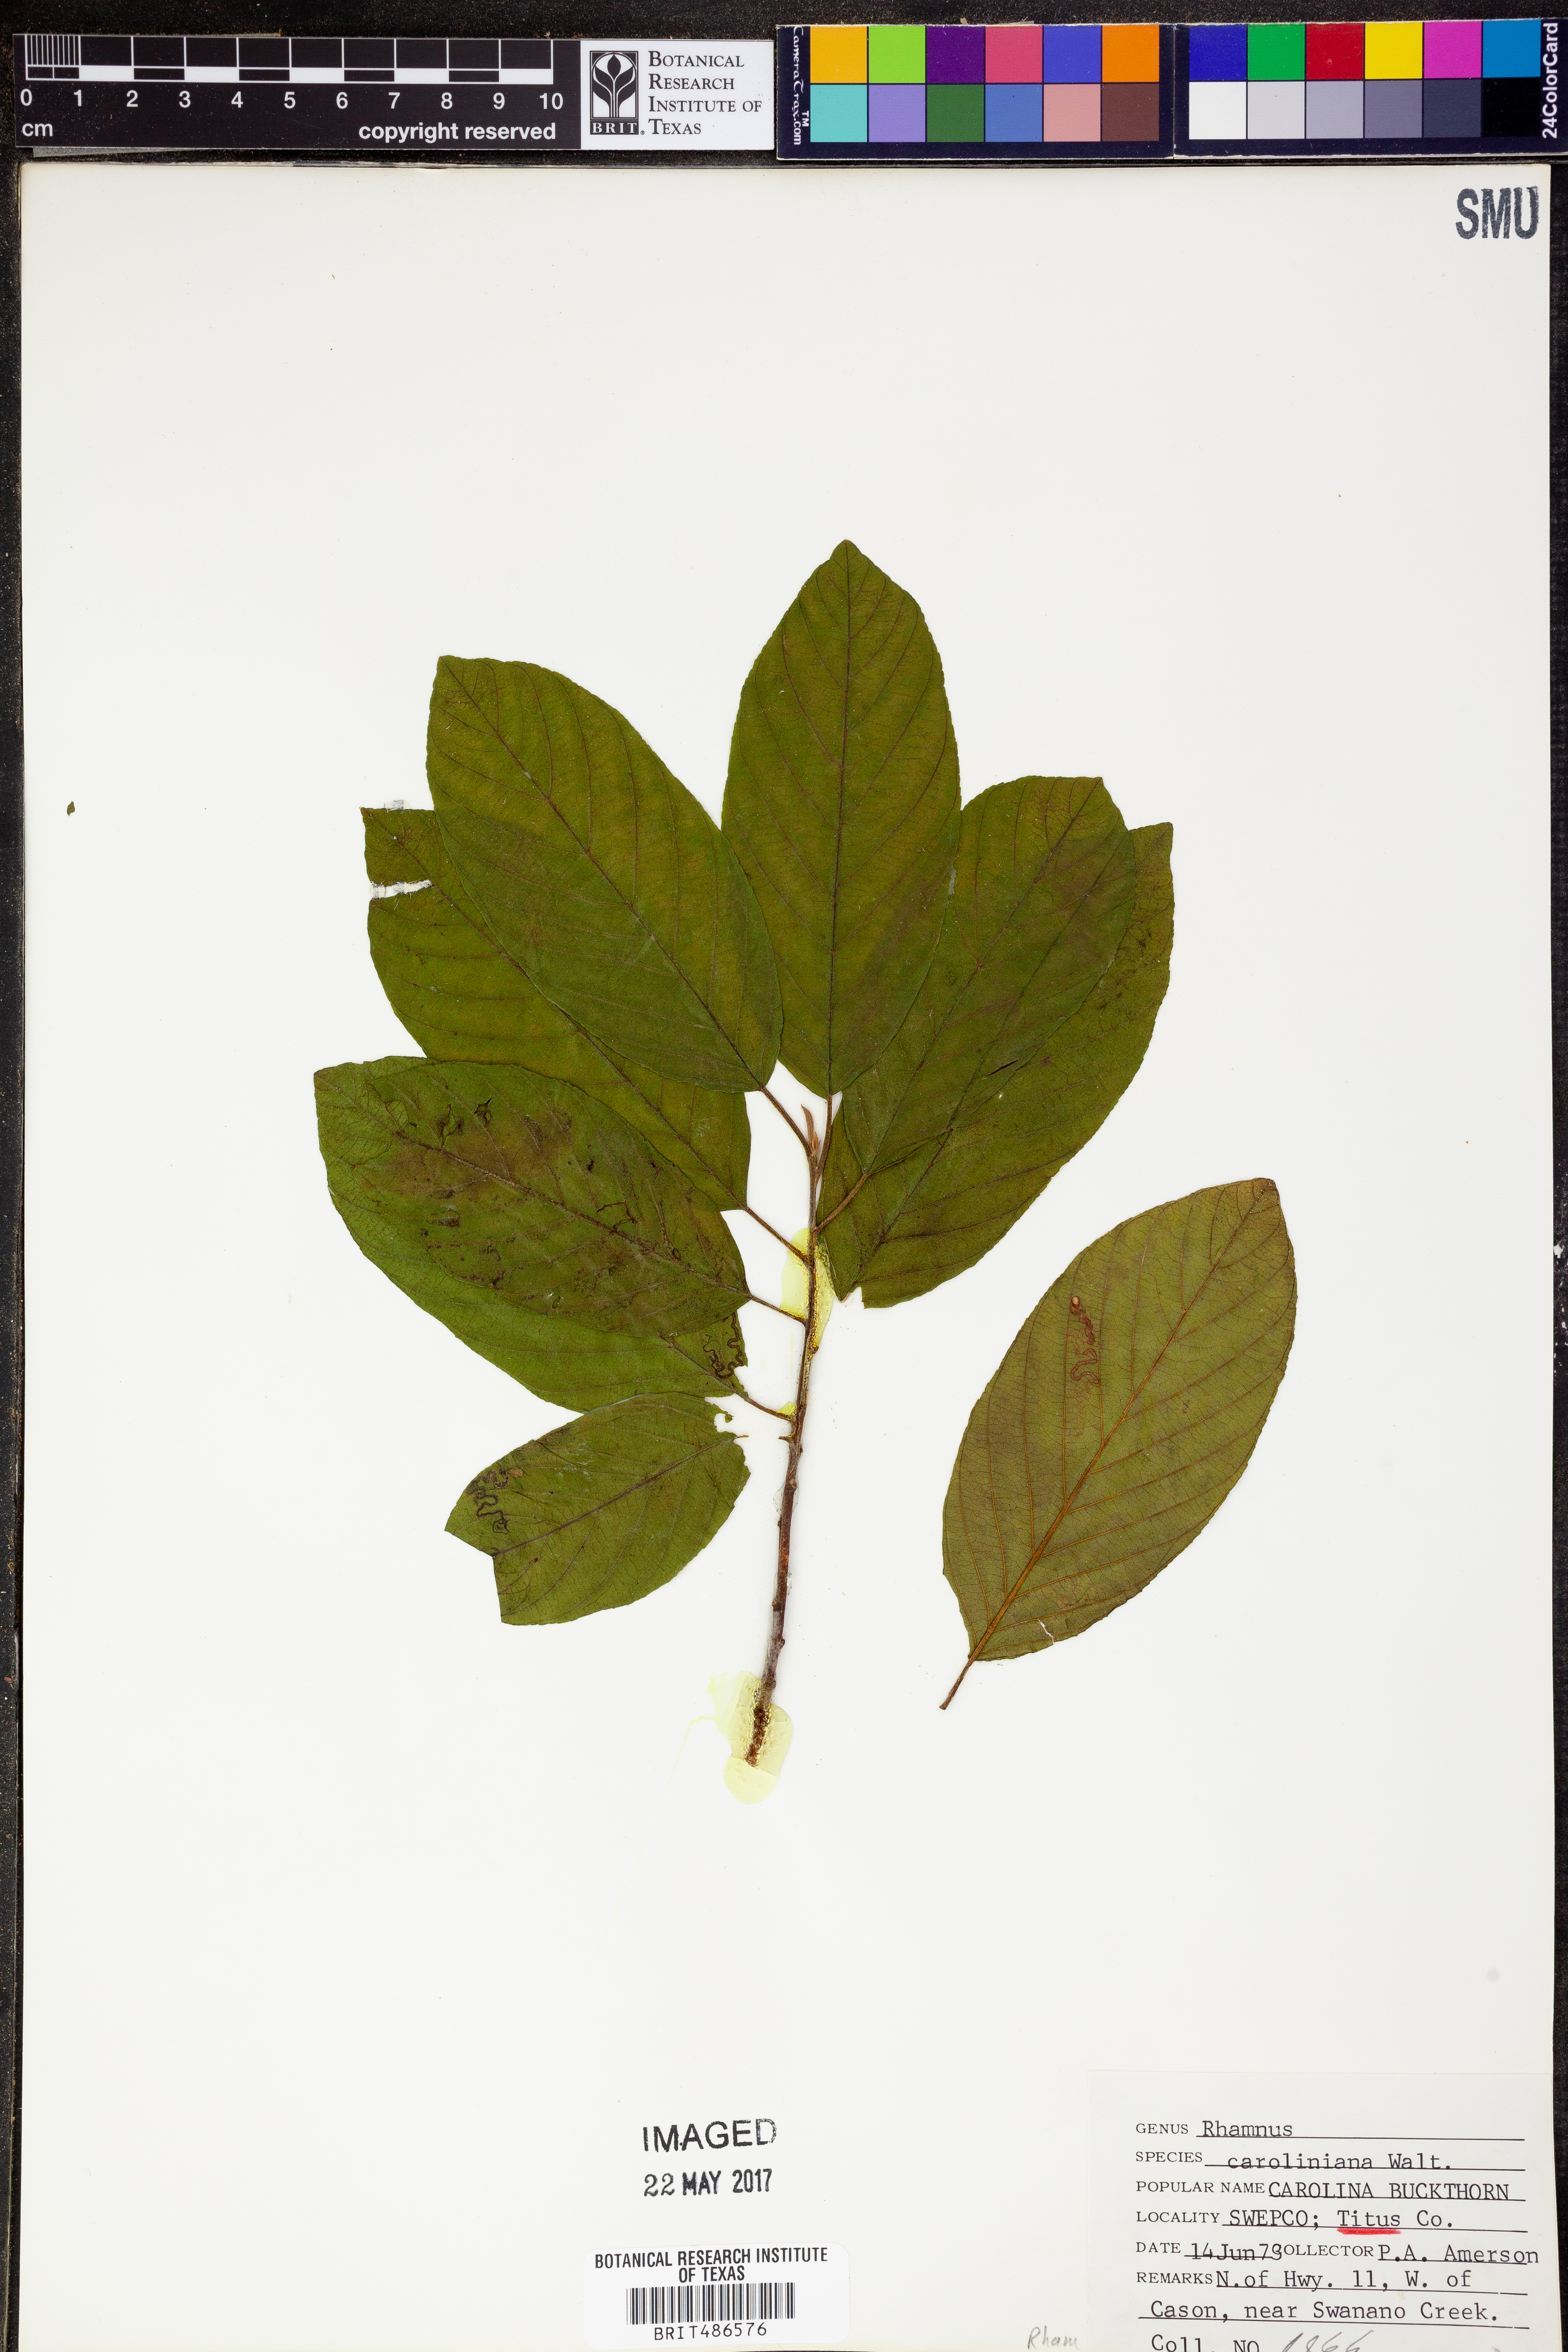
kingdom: Plantae
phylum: Tracheophyta
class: Magnoliopsida
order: Rosales
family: Rhamnaceae
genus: Frangula
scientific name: Frangula caroliniana
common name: Carolina buckthorn
